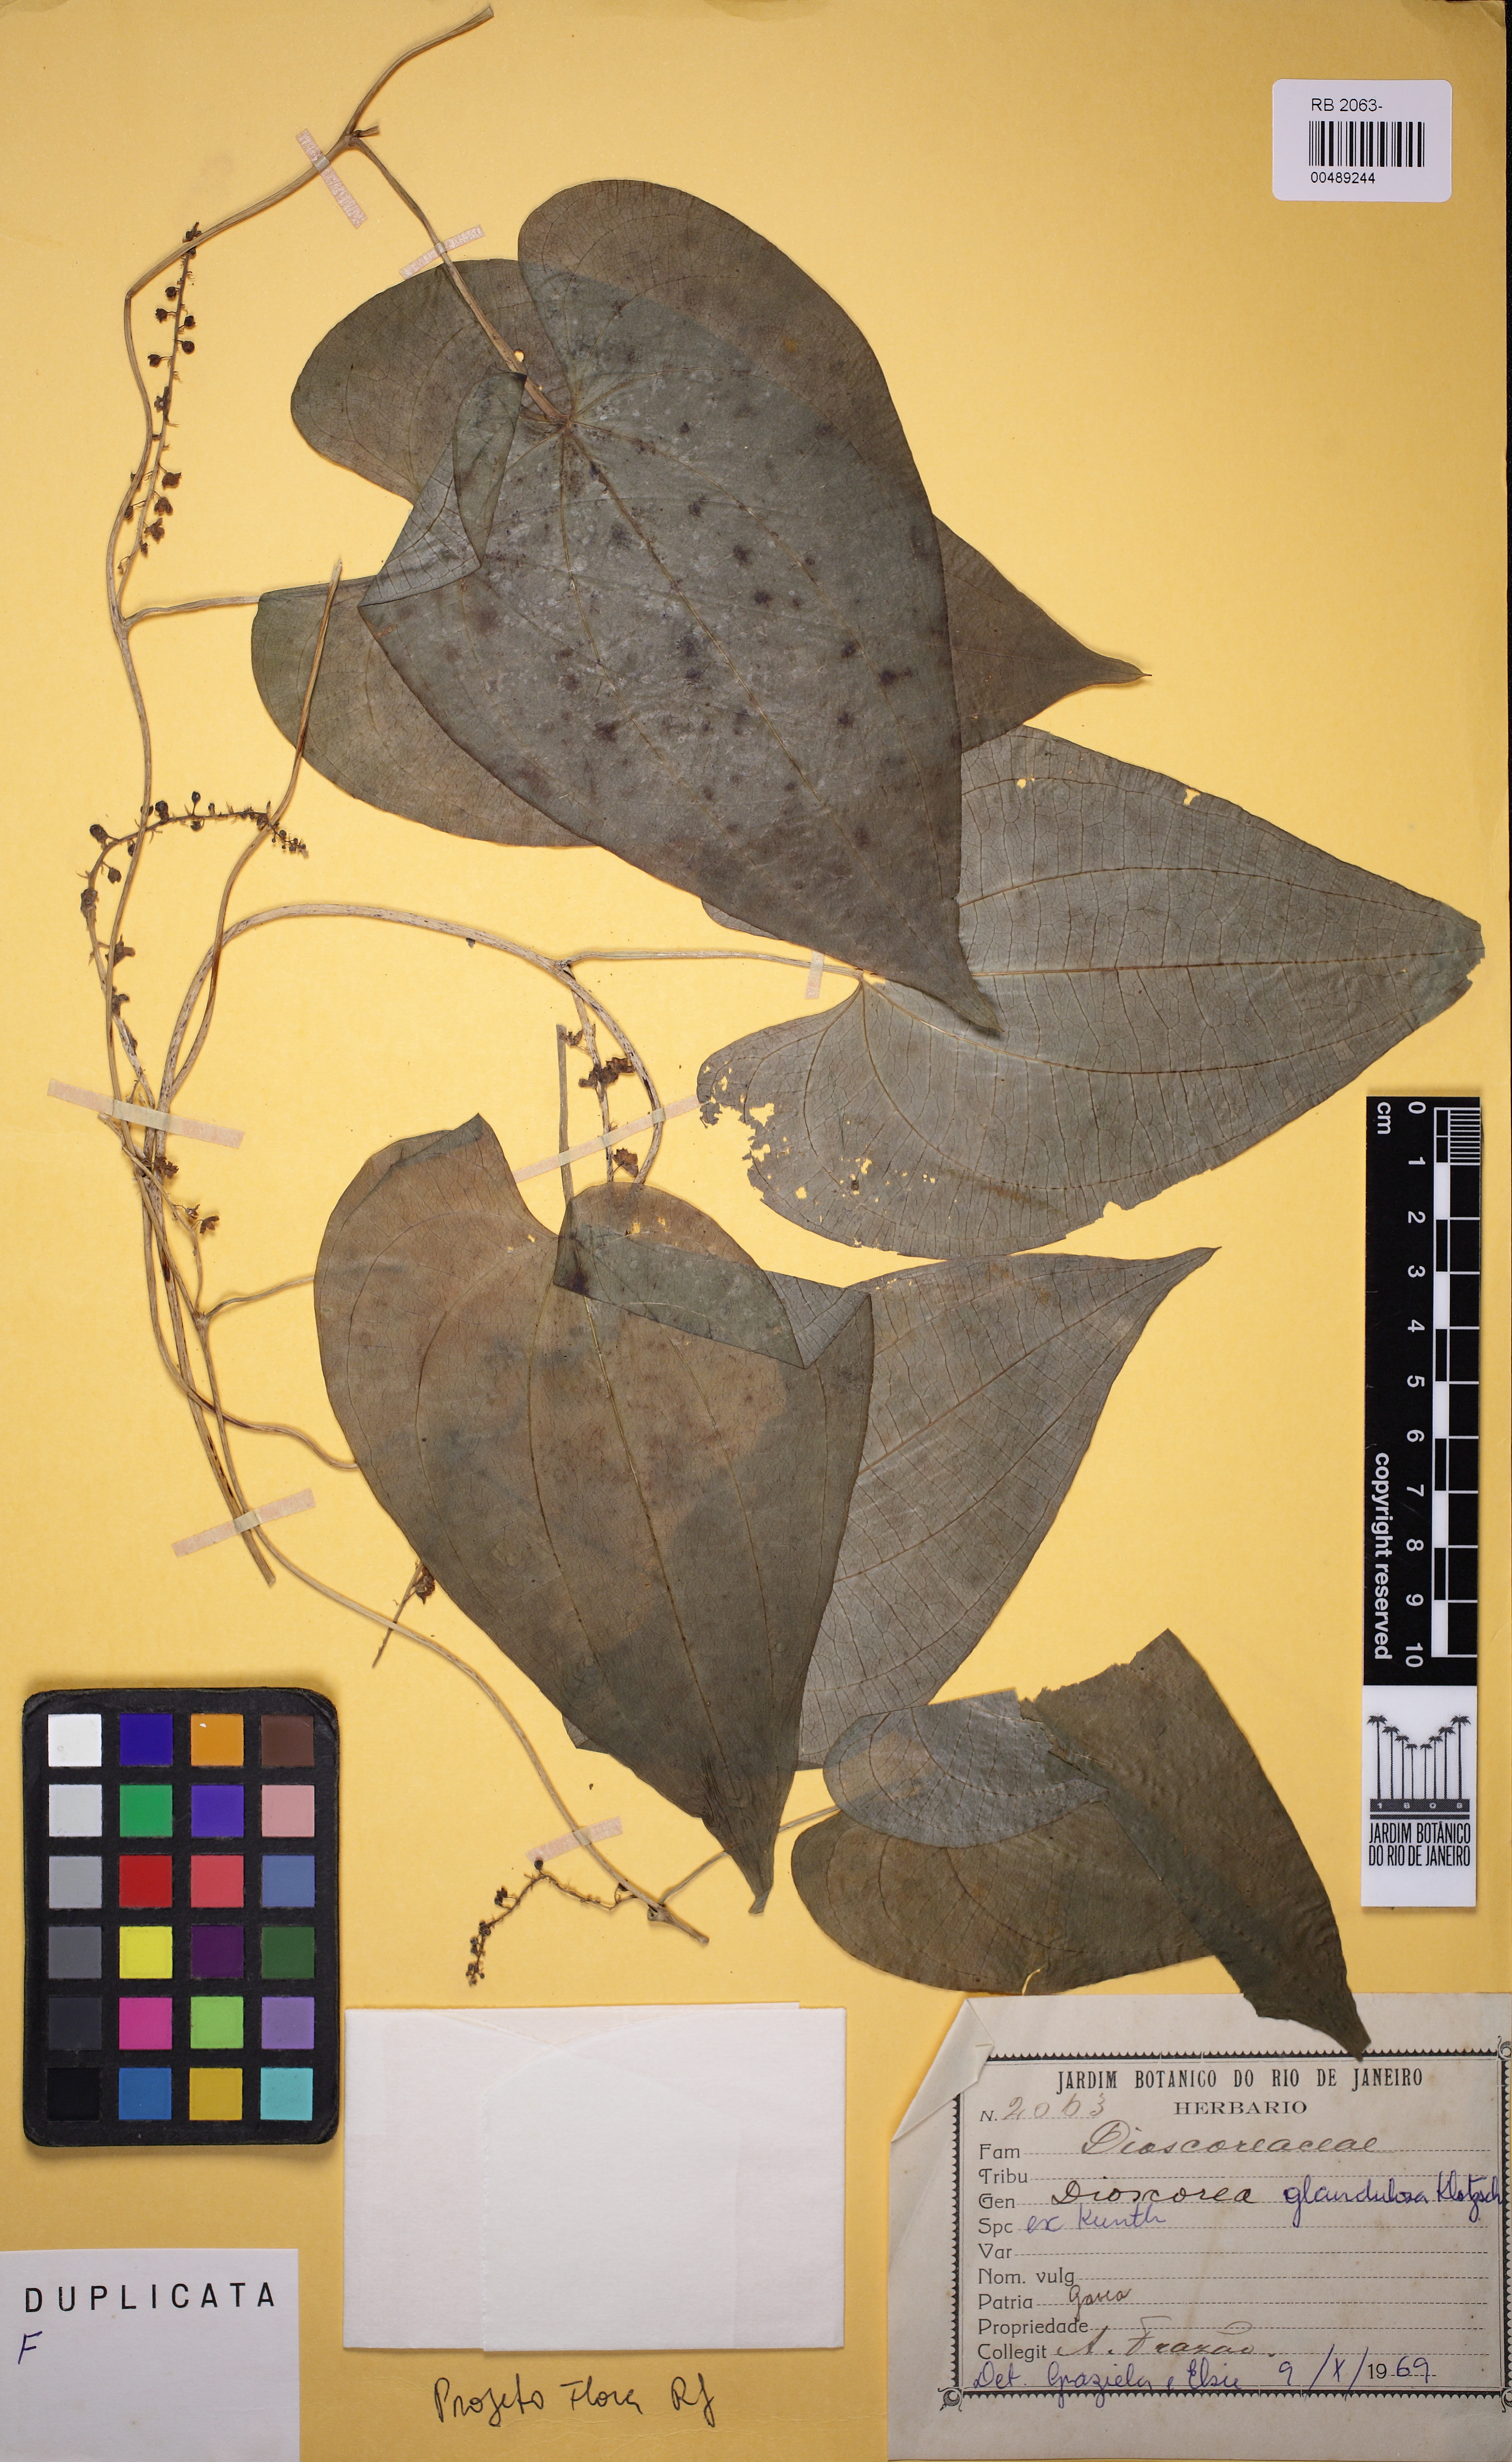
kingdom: Plantae
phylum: Tracheophyta
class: Liliopsida
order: Dioscoreales
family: Dioscoreaceae
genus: Dioscorea
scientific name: Dioscorea piperifolia
